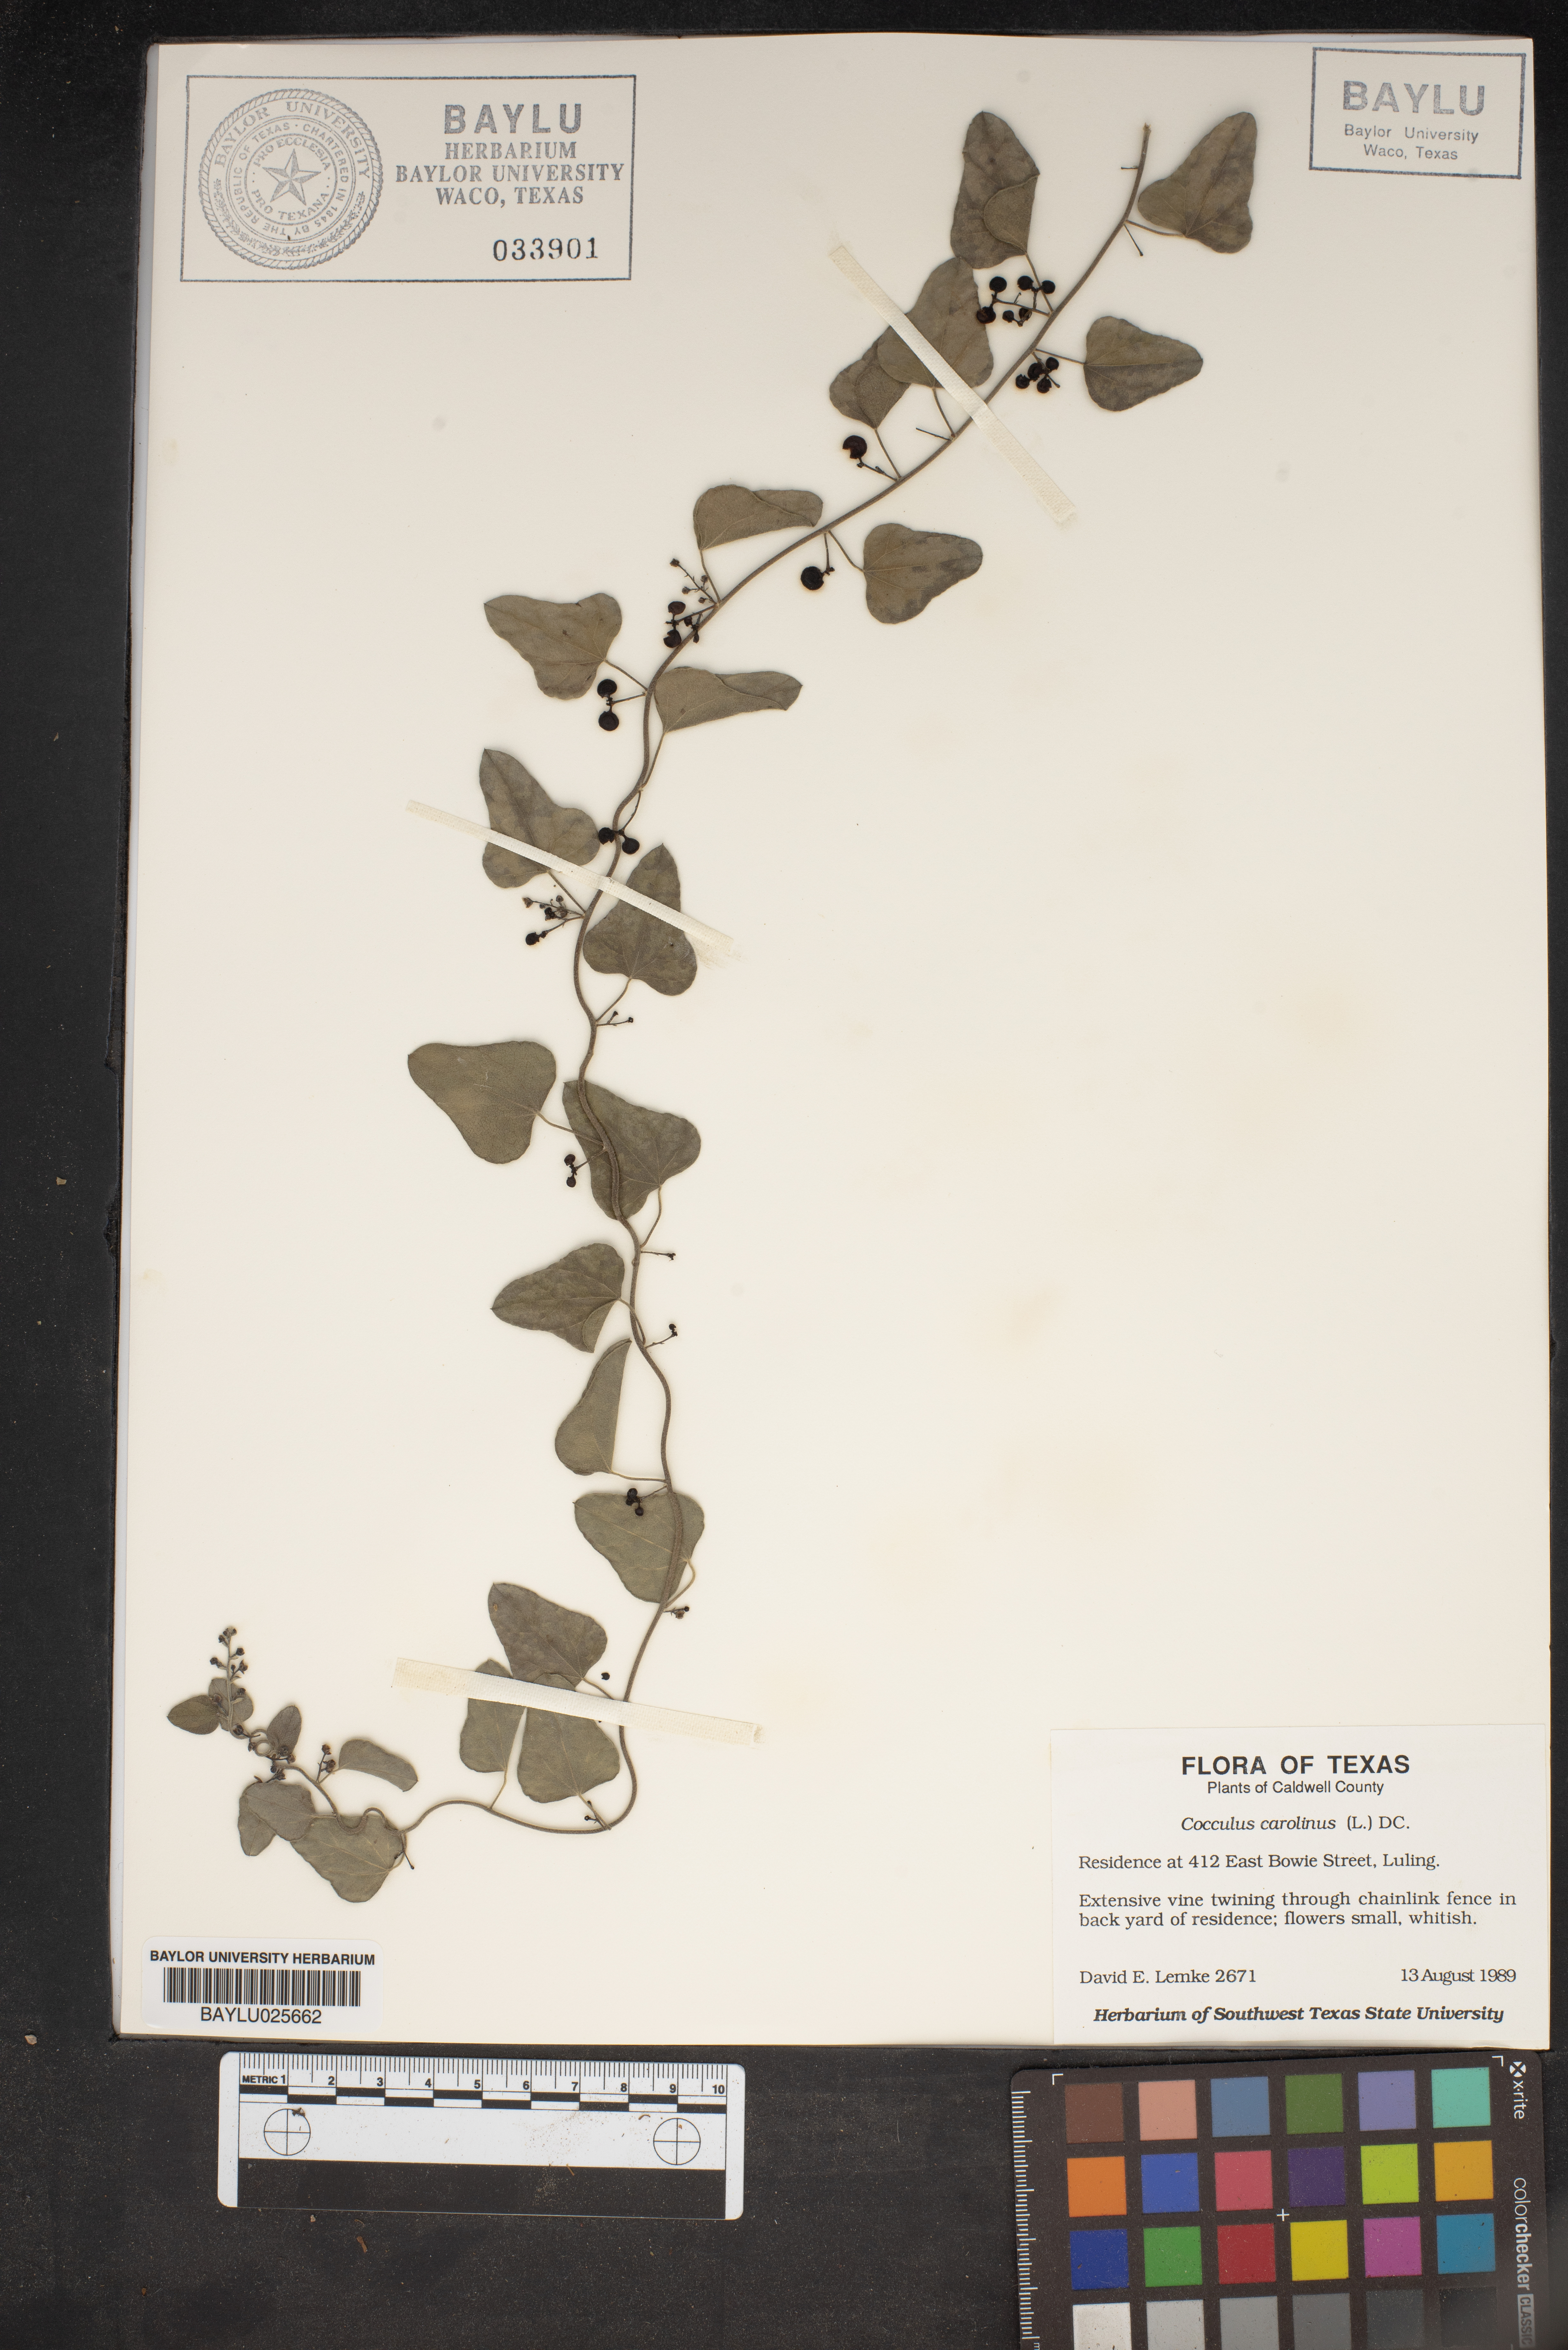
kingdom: Plantae
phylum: Tracheophyta
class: Magnoliopsida
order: Ranunculales
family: Menispermaceae
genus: Cocculus
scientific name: Cocculus carolinus
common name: Carolina moonseed
